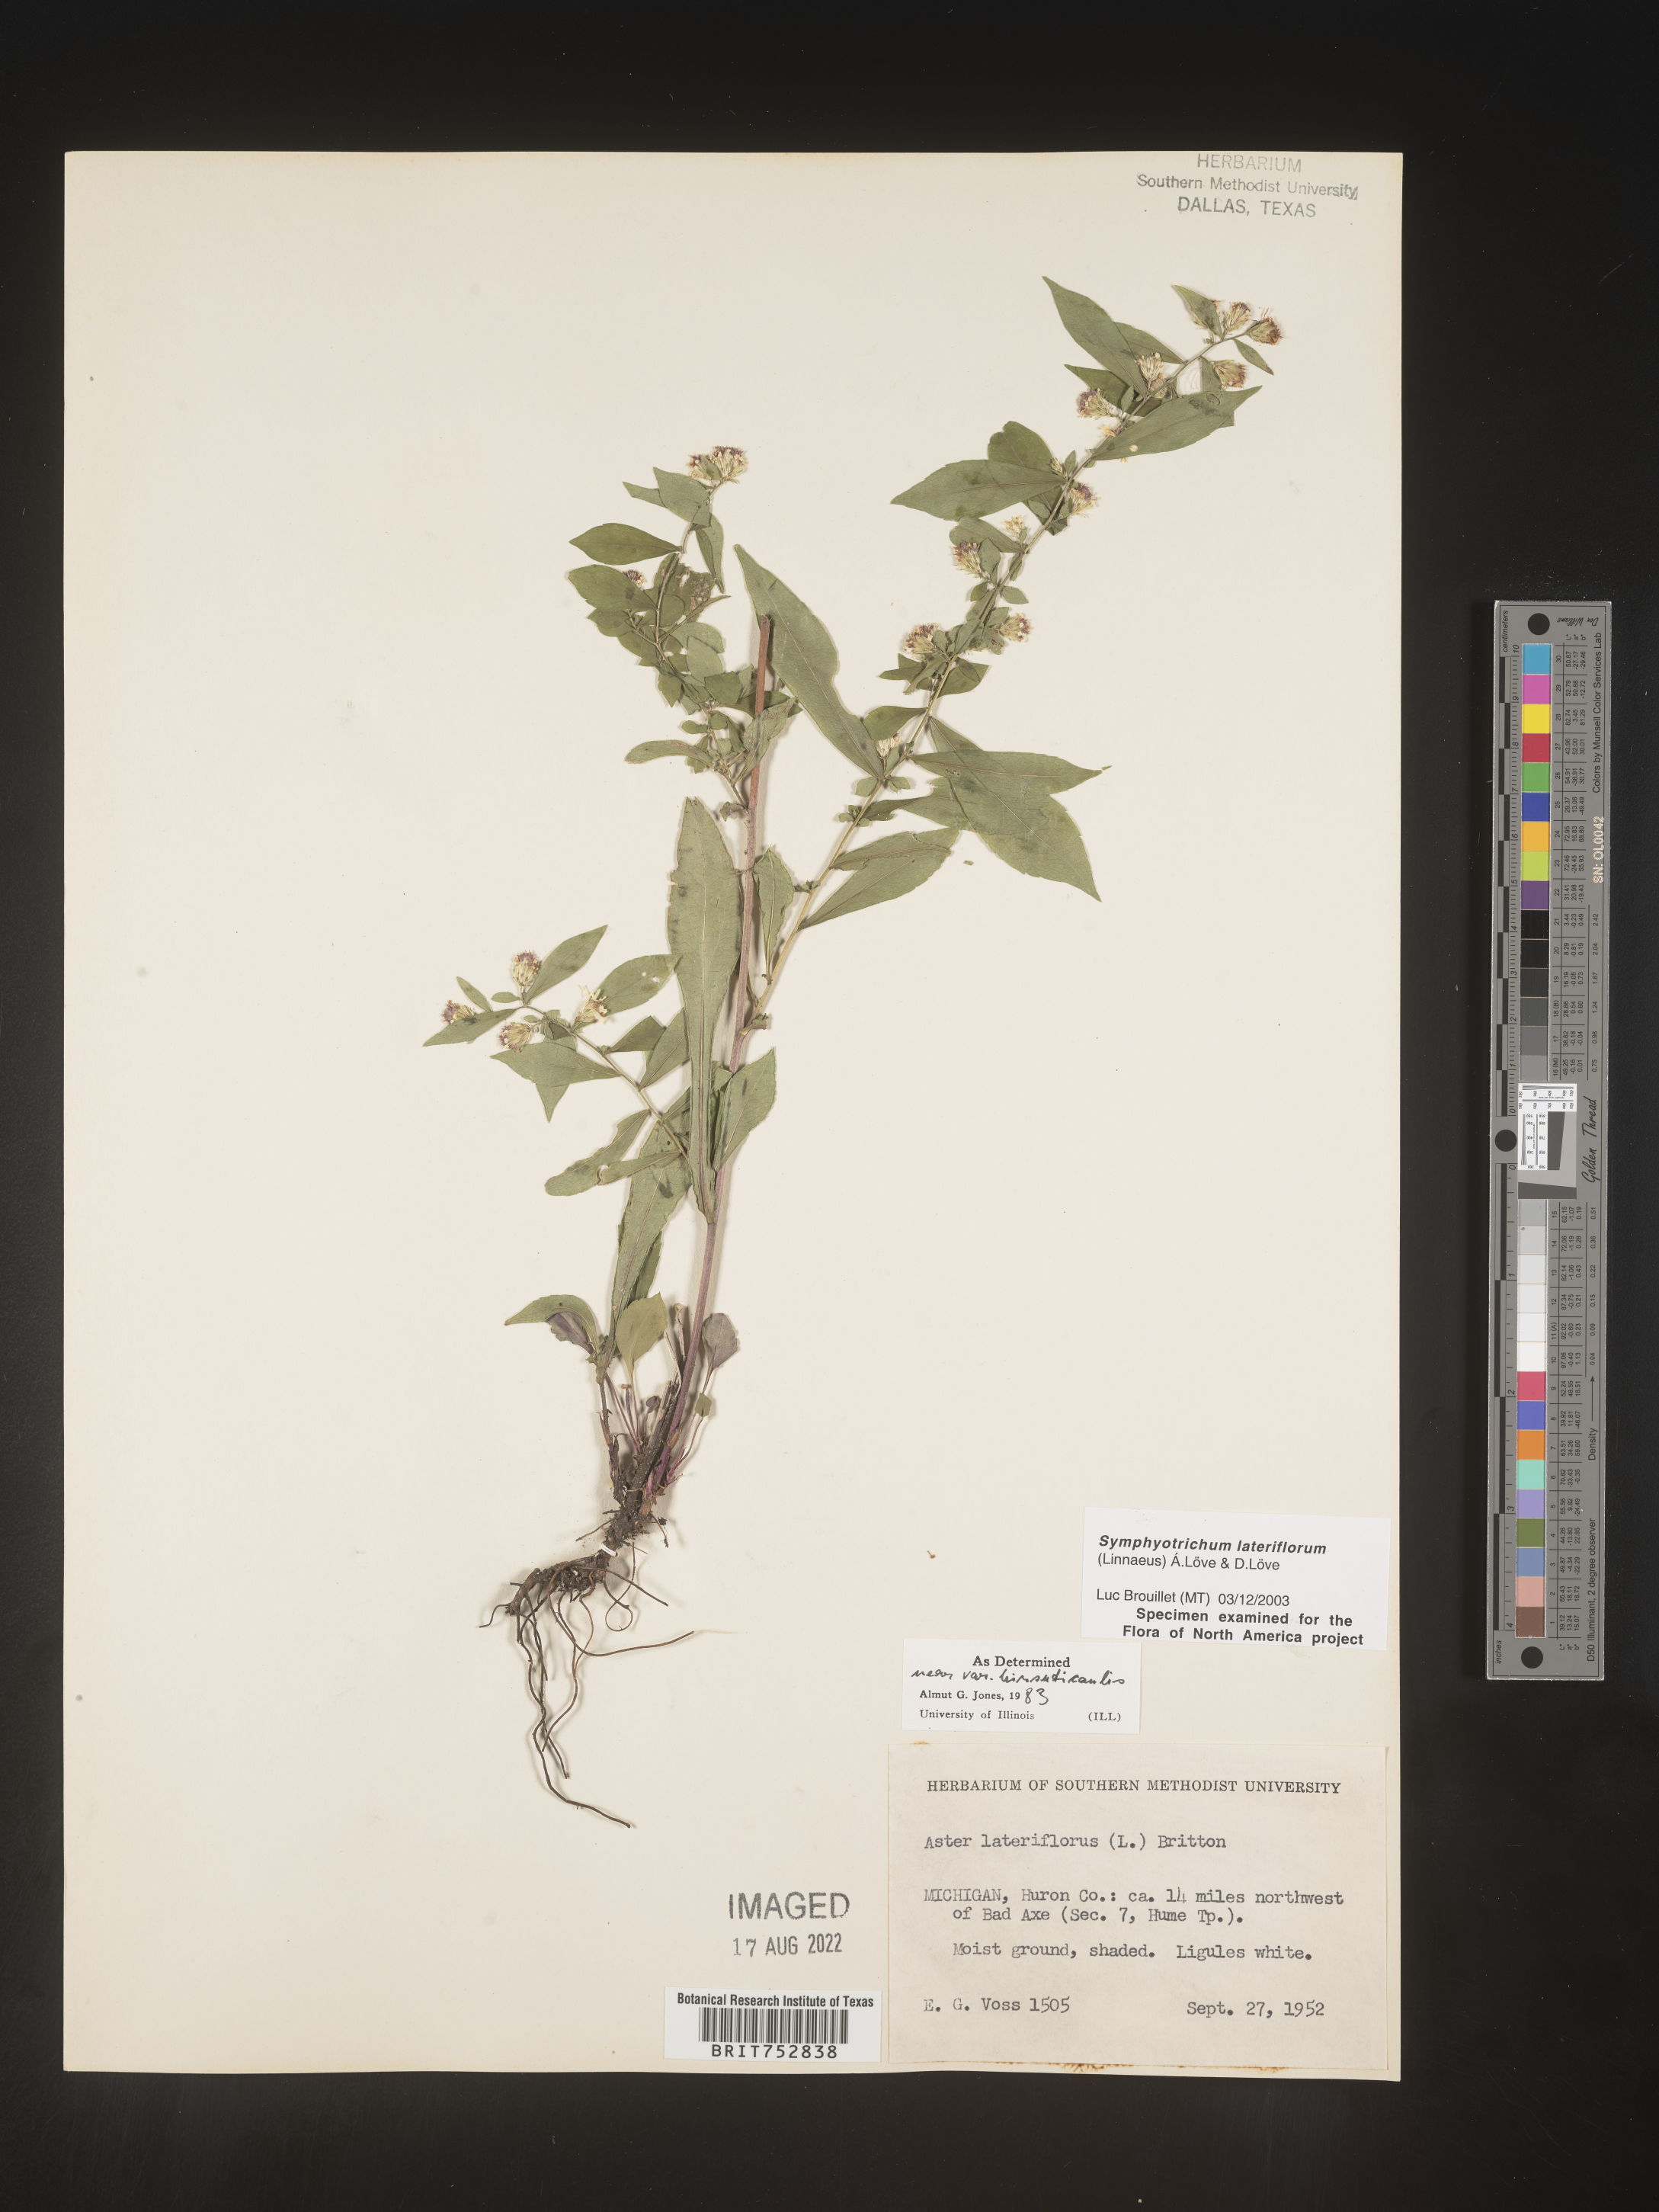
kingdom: Plantae
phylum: Tracheophyta
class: Magnoliopsida
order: Asterales
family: Asteraceae
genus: Symphyotrichum
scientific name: Symphyotrichum lateriflorum
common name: Calico aster
